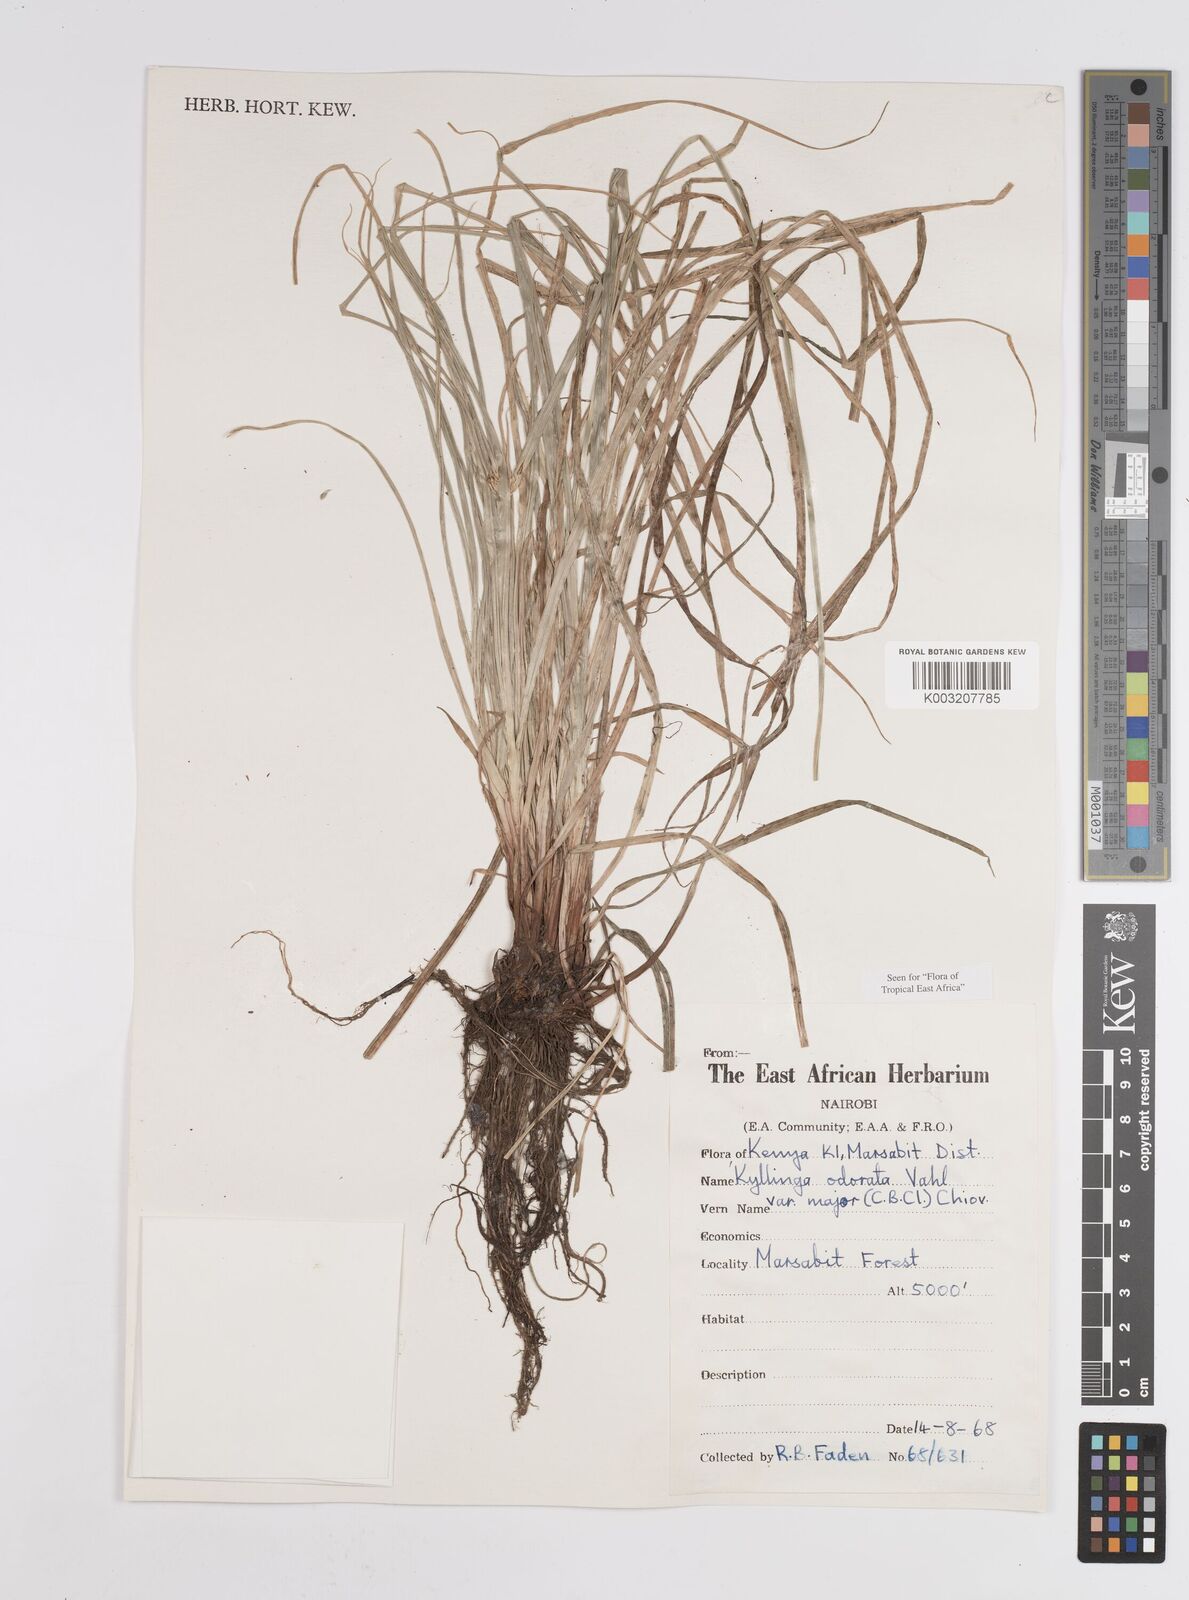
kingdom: Plantae
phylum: Tracheophyta
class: Liliopsida
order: Poales
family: Cyperaceae
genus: Cyperus
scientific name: Cyperus
